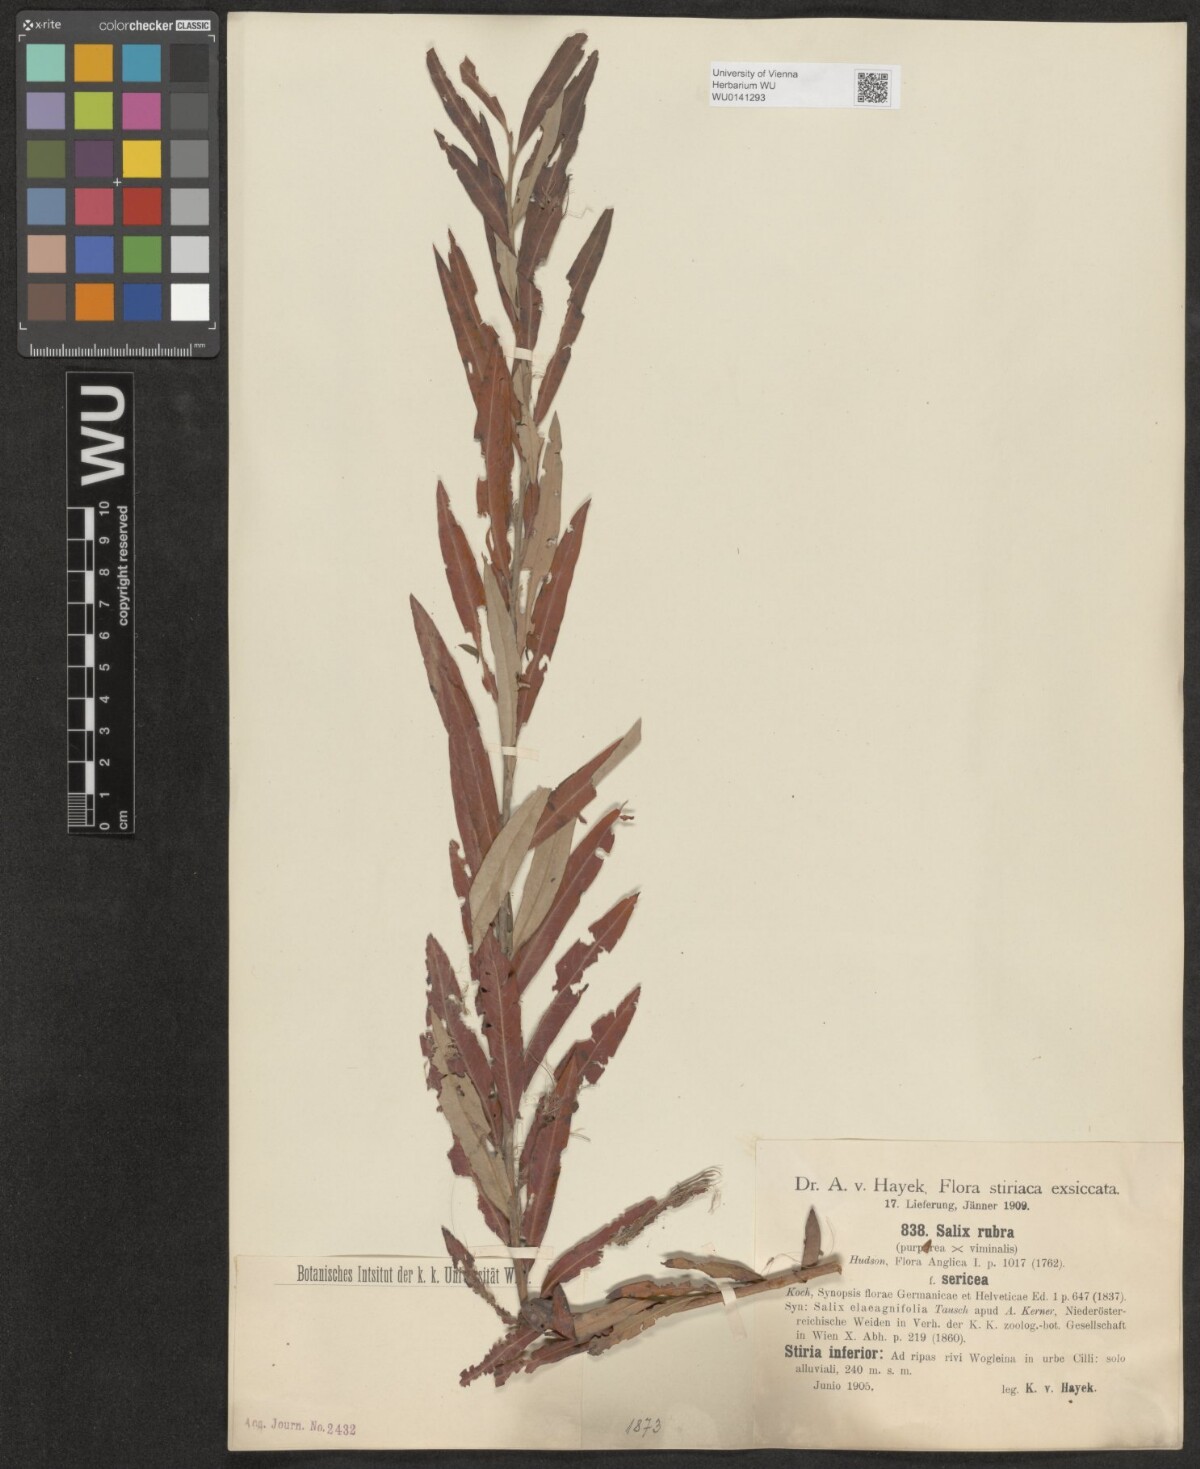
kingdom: Plantae
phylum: Tracheophyta
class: Magnoliopsida
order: Malpighiales
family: Salicaceae
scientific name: Salicaceae
